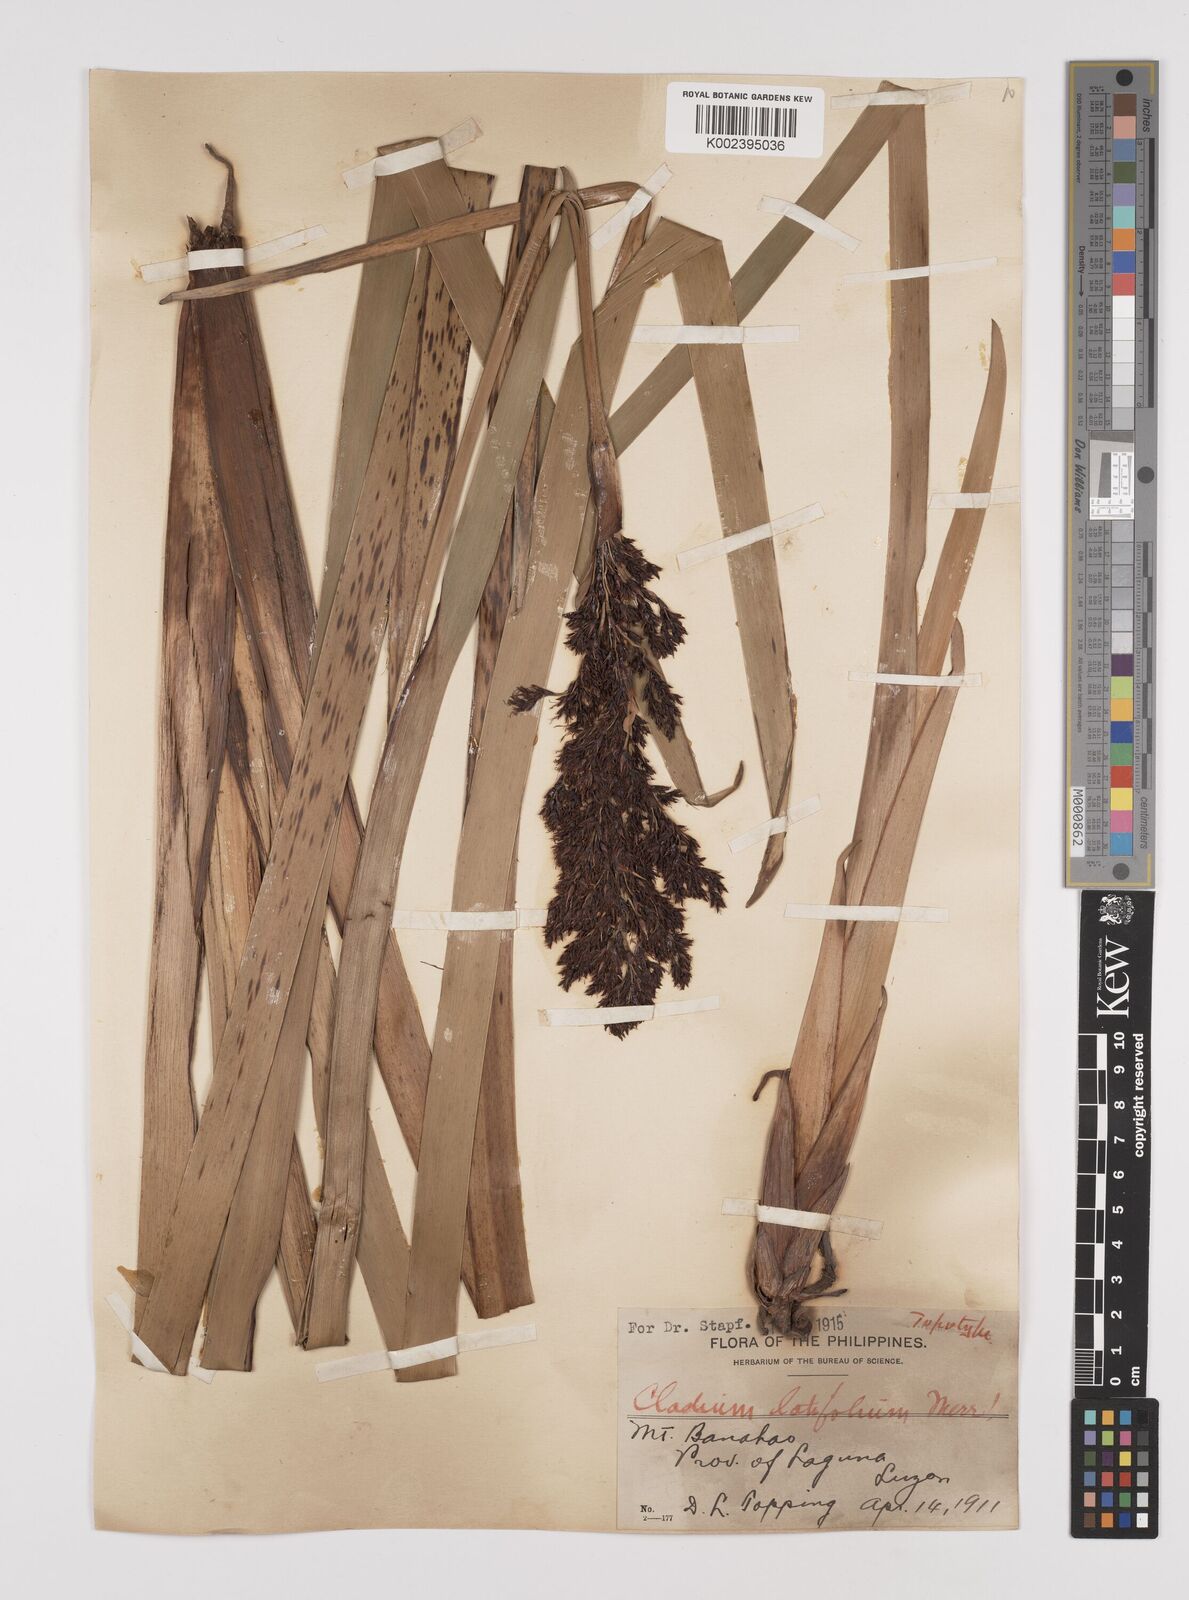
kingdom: Plantae
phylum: Tracheophyta
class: Liliopsida
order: Poales
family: Cyperaceae
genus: Machaerina
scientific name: Machaerina sinclairii
